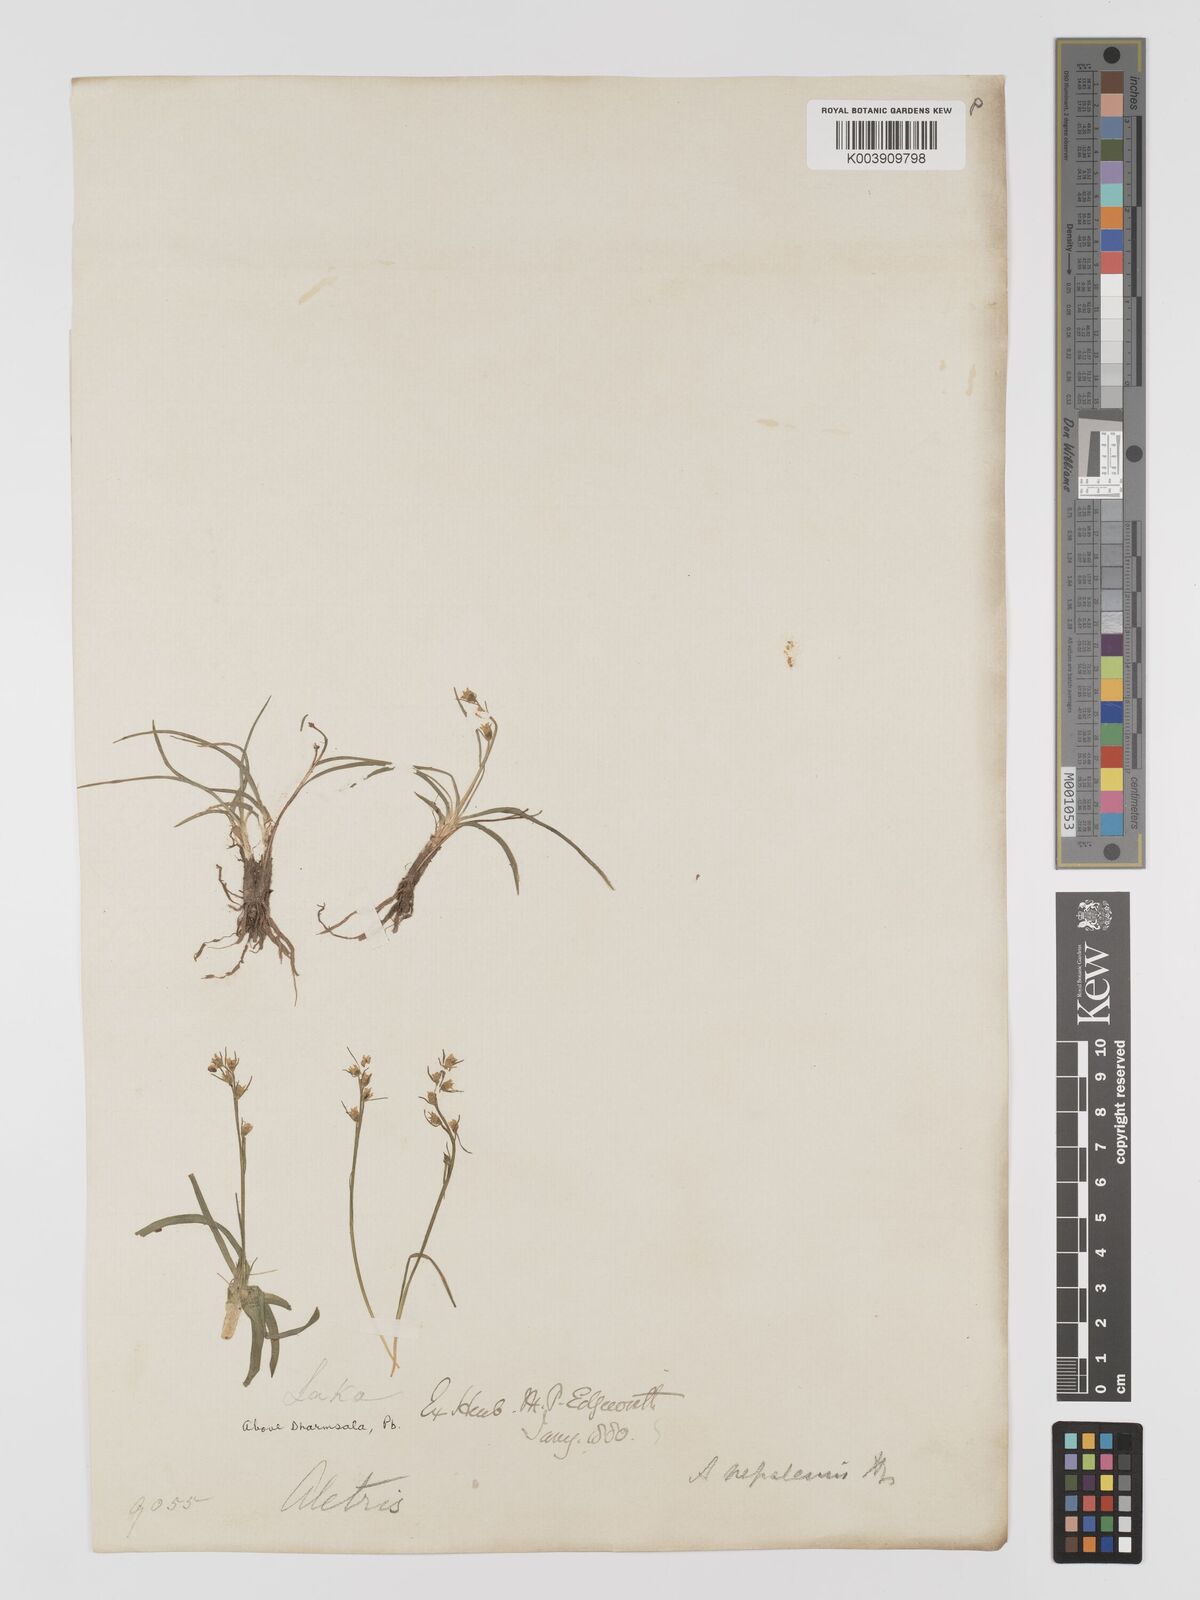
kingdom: Plantae
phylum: Tracheophyta
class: Liliopsida
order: Dioscoreales
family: Nartheciaceae
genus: Aletris
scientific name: Aletris pauciflora
